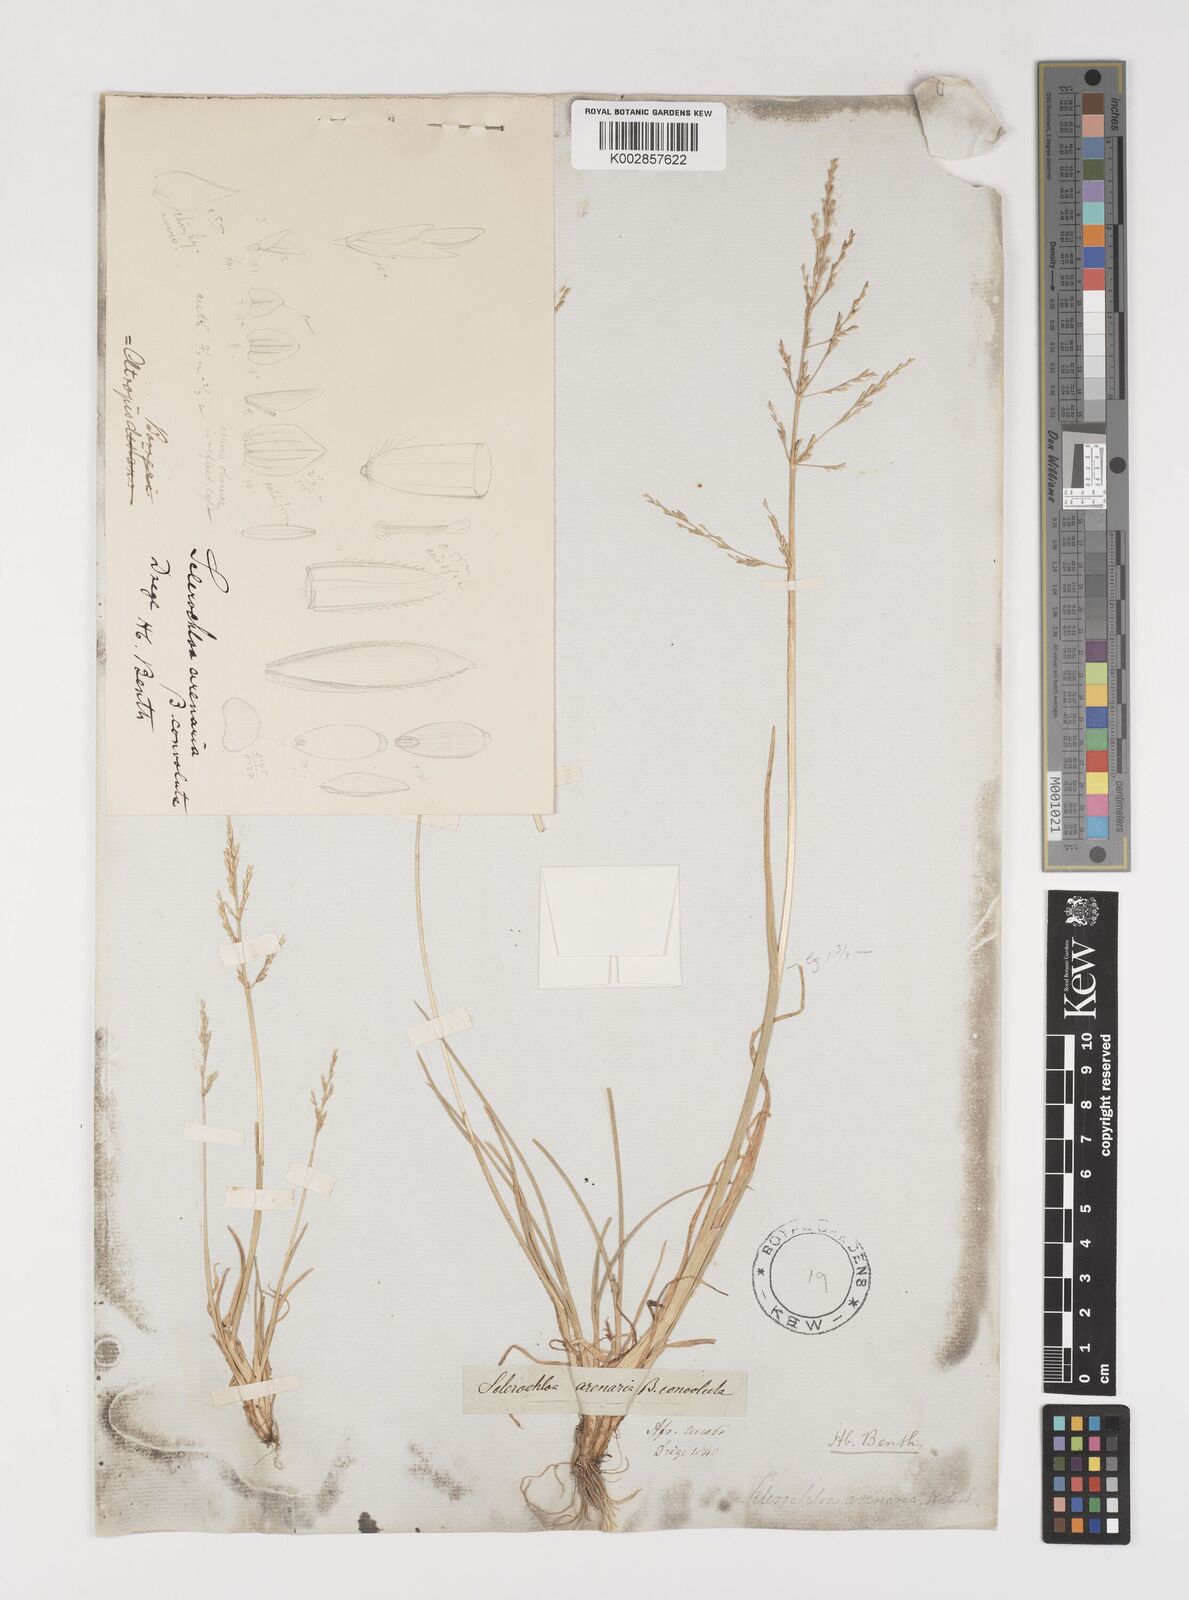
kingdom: Plantae
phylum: Tracheophyta
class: Liliopsida
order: Poales
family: Poaceae
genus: Puccinellia
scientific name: Puccinellia fasciculata
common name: Borrer's saltmarsh-grass
